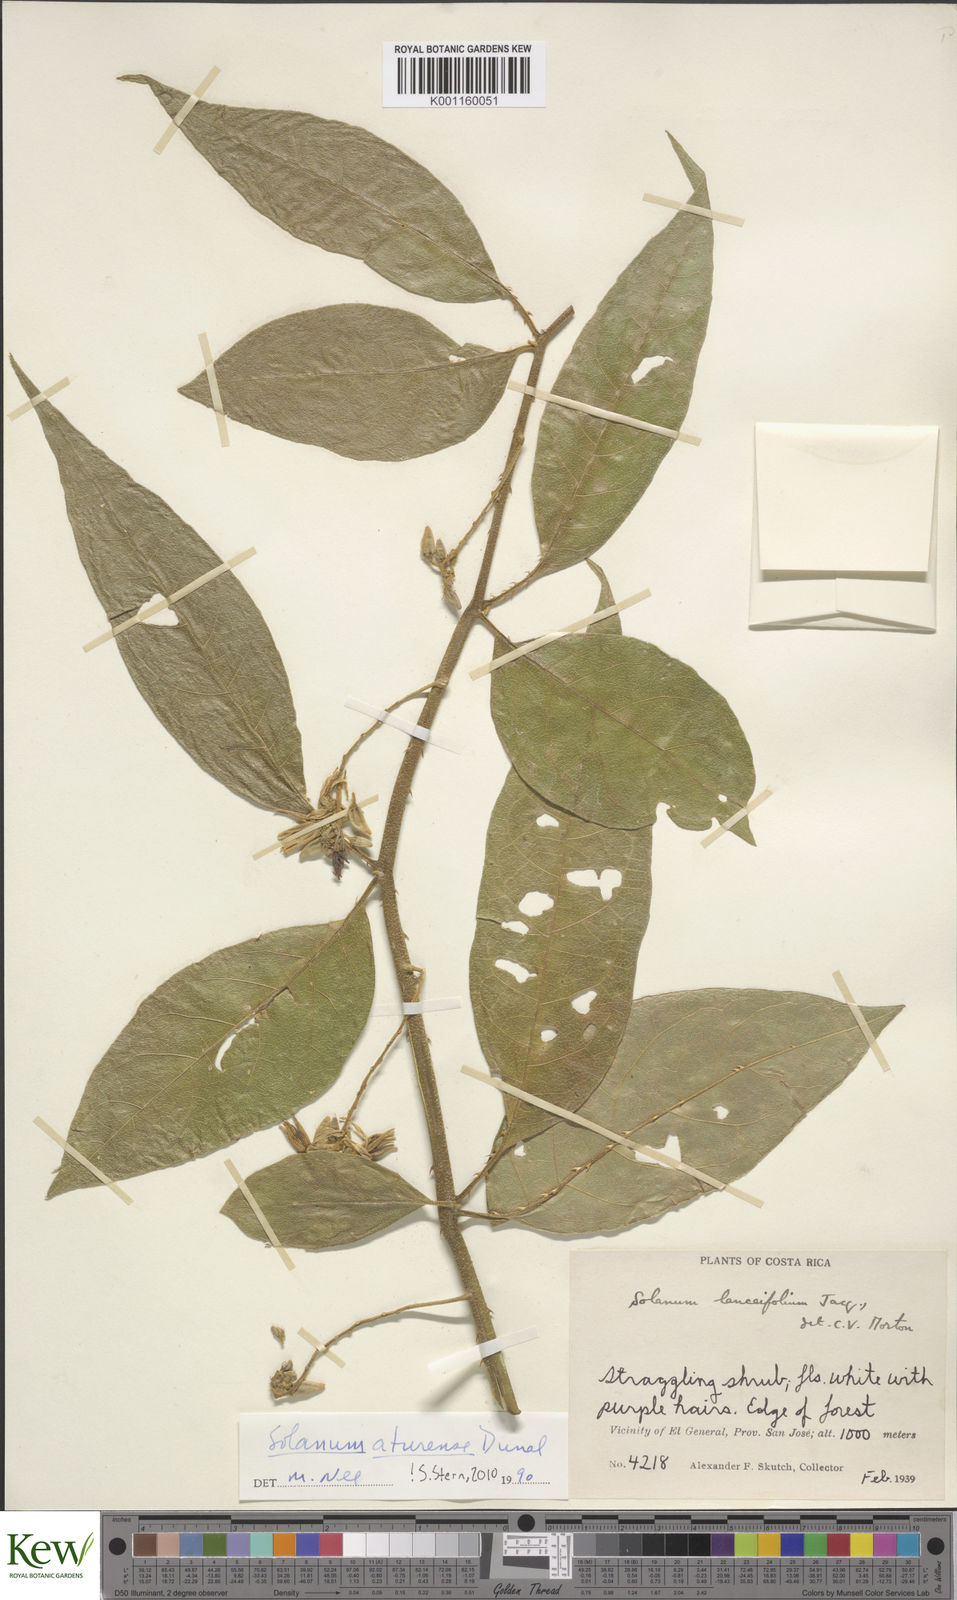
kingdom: Plantae
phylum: Tracheophyta
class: Magnoliopsida
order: Solanales
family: Solanaceae
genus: Solanum
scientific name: Solanum aturense
